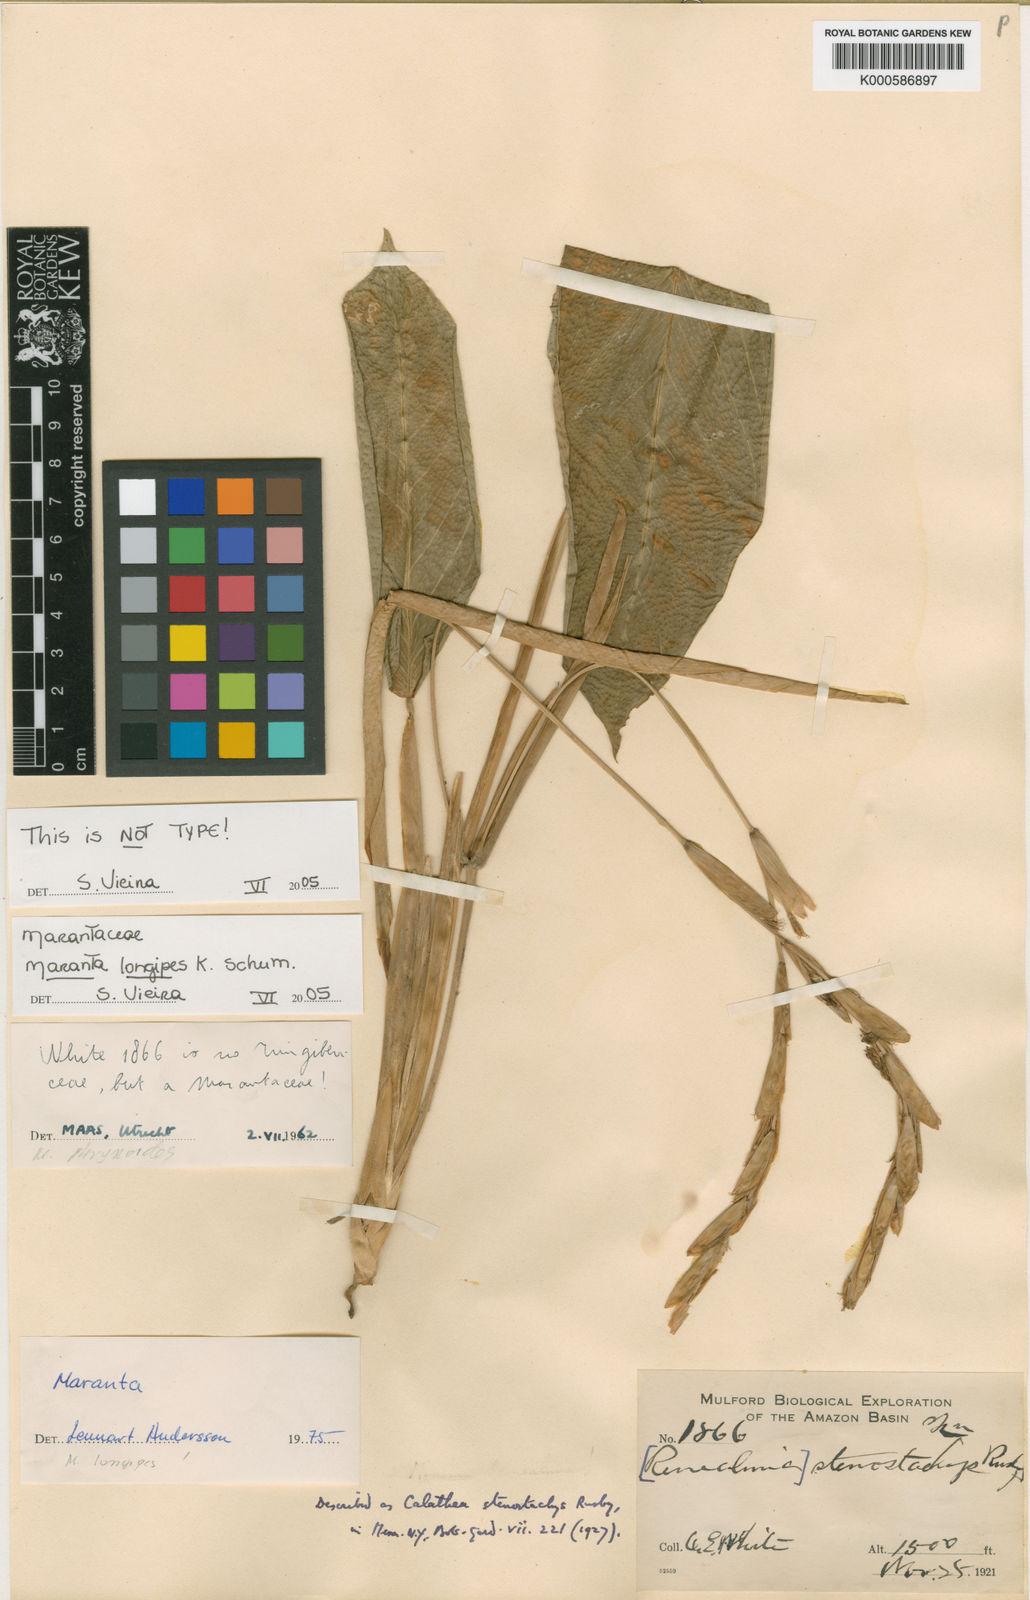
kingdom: Plantae
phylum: Tracheophyta
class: Liliopsida
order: Zingiberales
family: Marantaceae
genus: Maranta
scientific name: Maranta phrynioides
